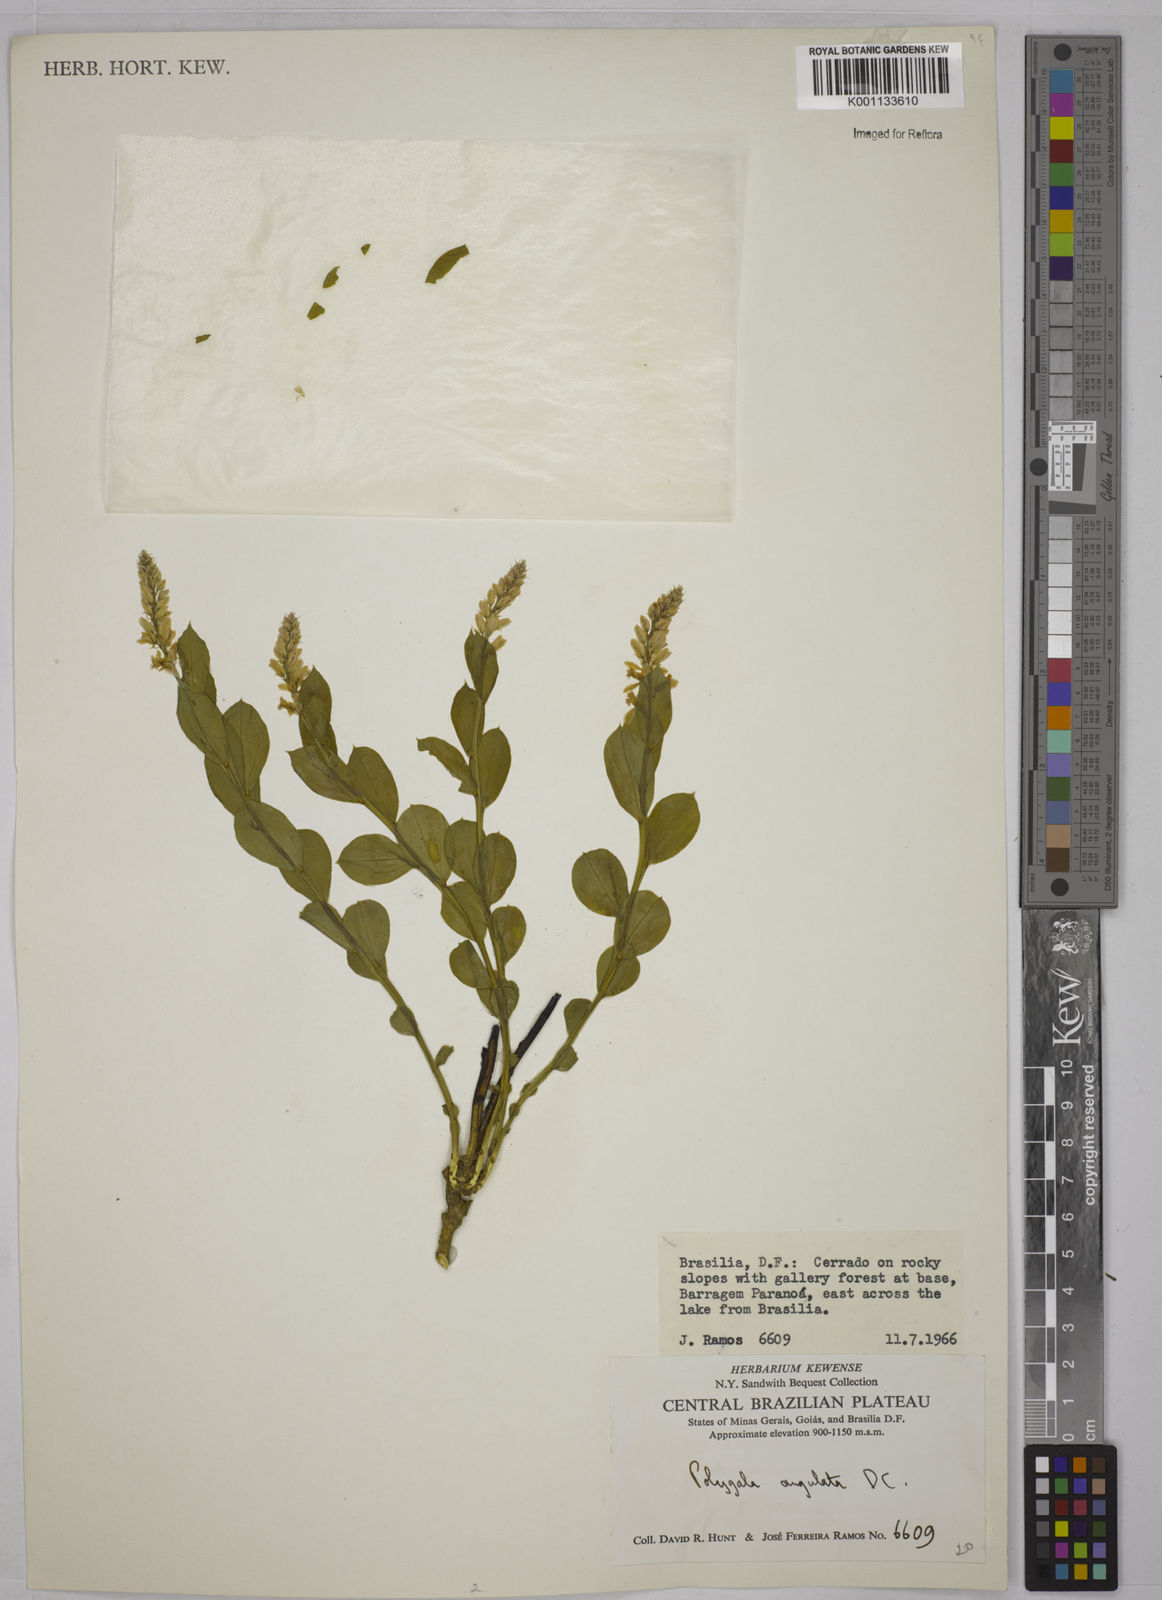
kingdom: Plantae
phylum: Tracheophyta
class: Magnoliopsida
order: Fabales
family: Polygalaceae
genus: Polygala
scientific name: Polygala poaya
